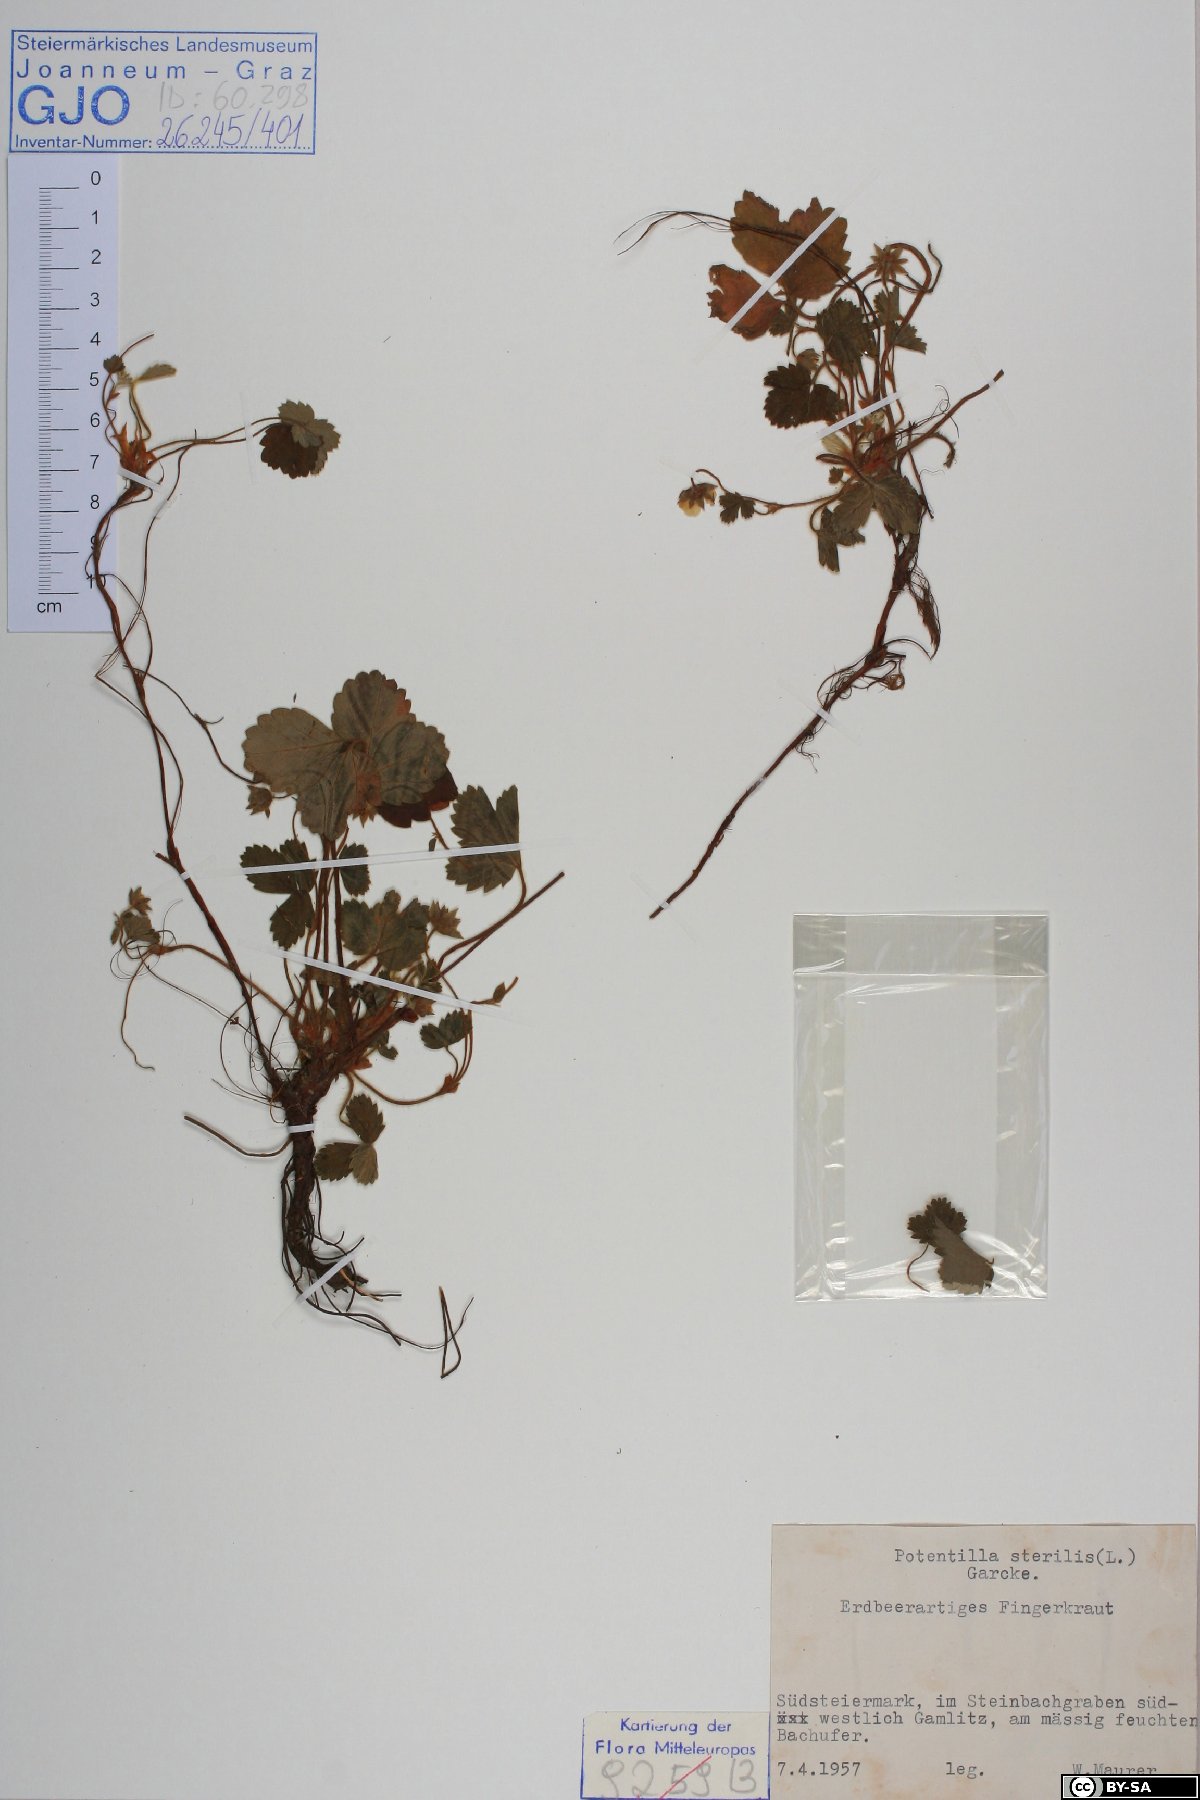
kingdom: Plantae
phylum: Tracheophyta
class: Magnoliopsida
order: Rosales
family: Rosaceae
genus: Potentilla
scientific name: Potentilla sterilis
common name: Barren strawberry
